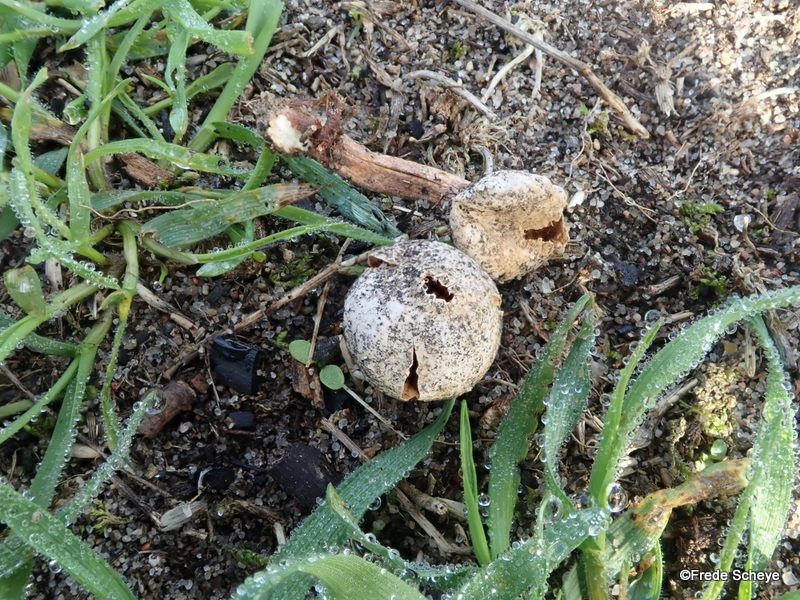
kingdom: Fungi
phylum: Basidiomycota
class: Agaricomycetes
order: Agaricales
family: Agaricaceae
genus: Tulostoma
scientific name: Tulostoma fimbriatum
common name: frynset stilkbovist
